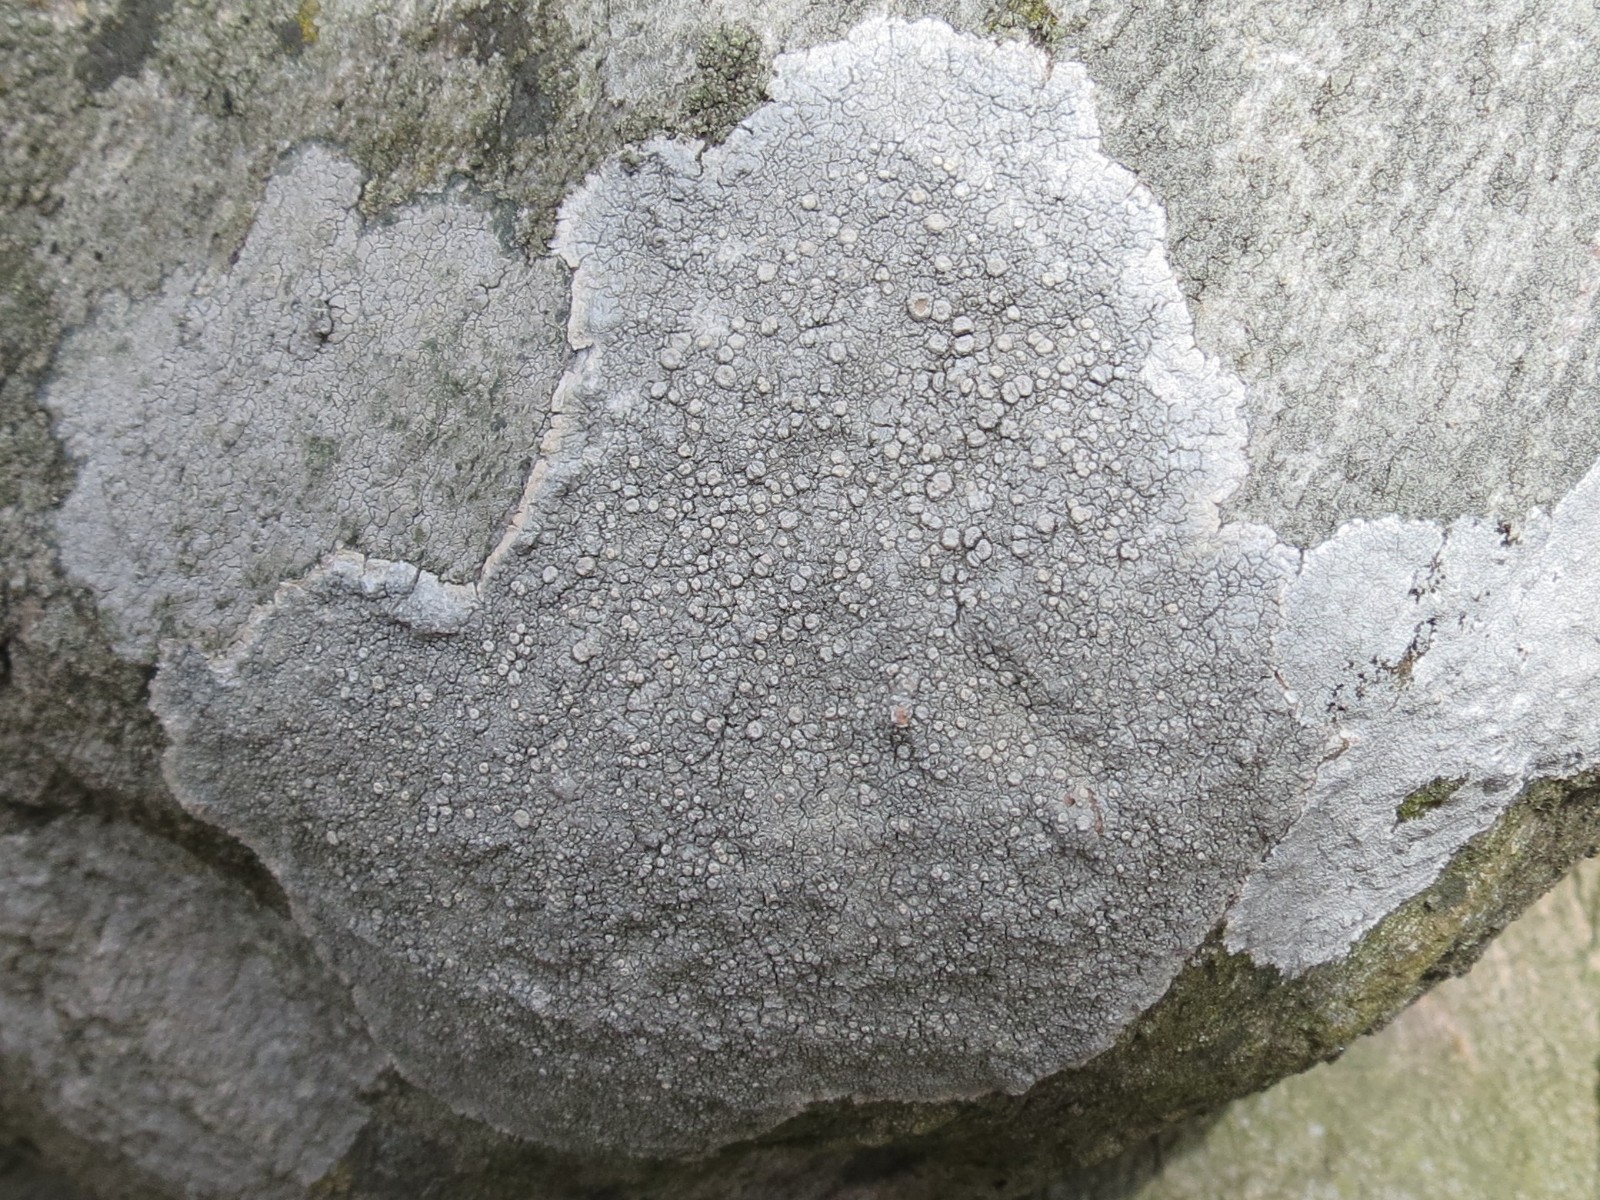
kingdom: Fungi
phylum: Ascomycota
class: Lecanoromycetes
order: Pertusariales
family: Ochrolechiaceae
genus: Ochrolechia
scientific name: Ochrolechia parella
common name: almindelig blegskivelav
